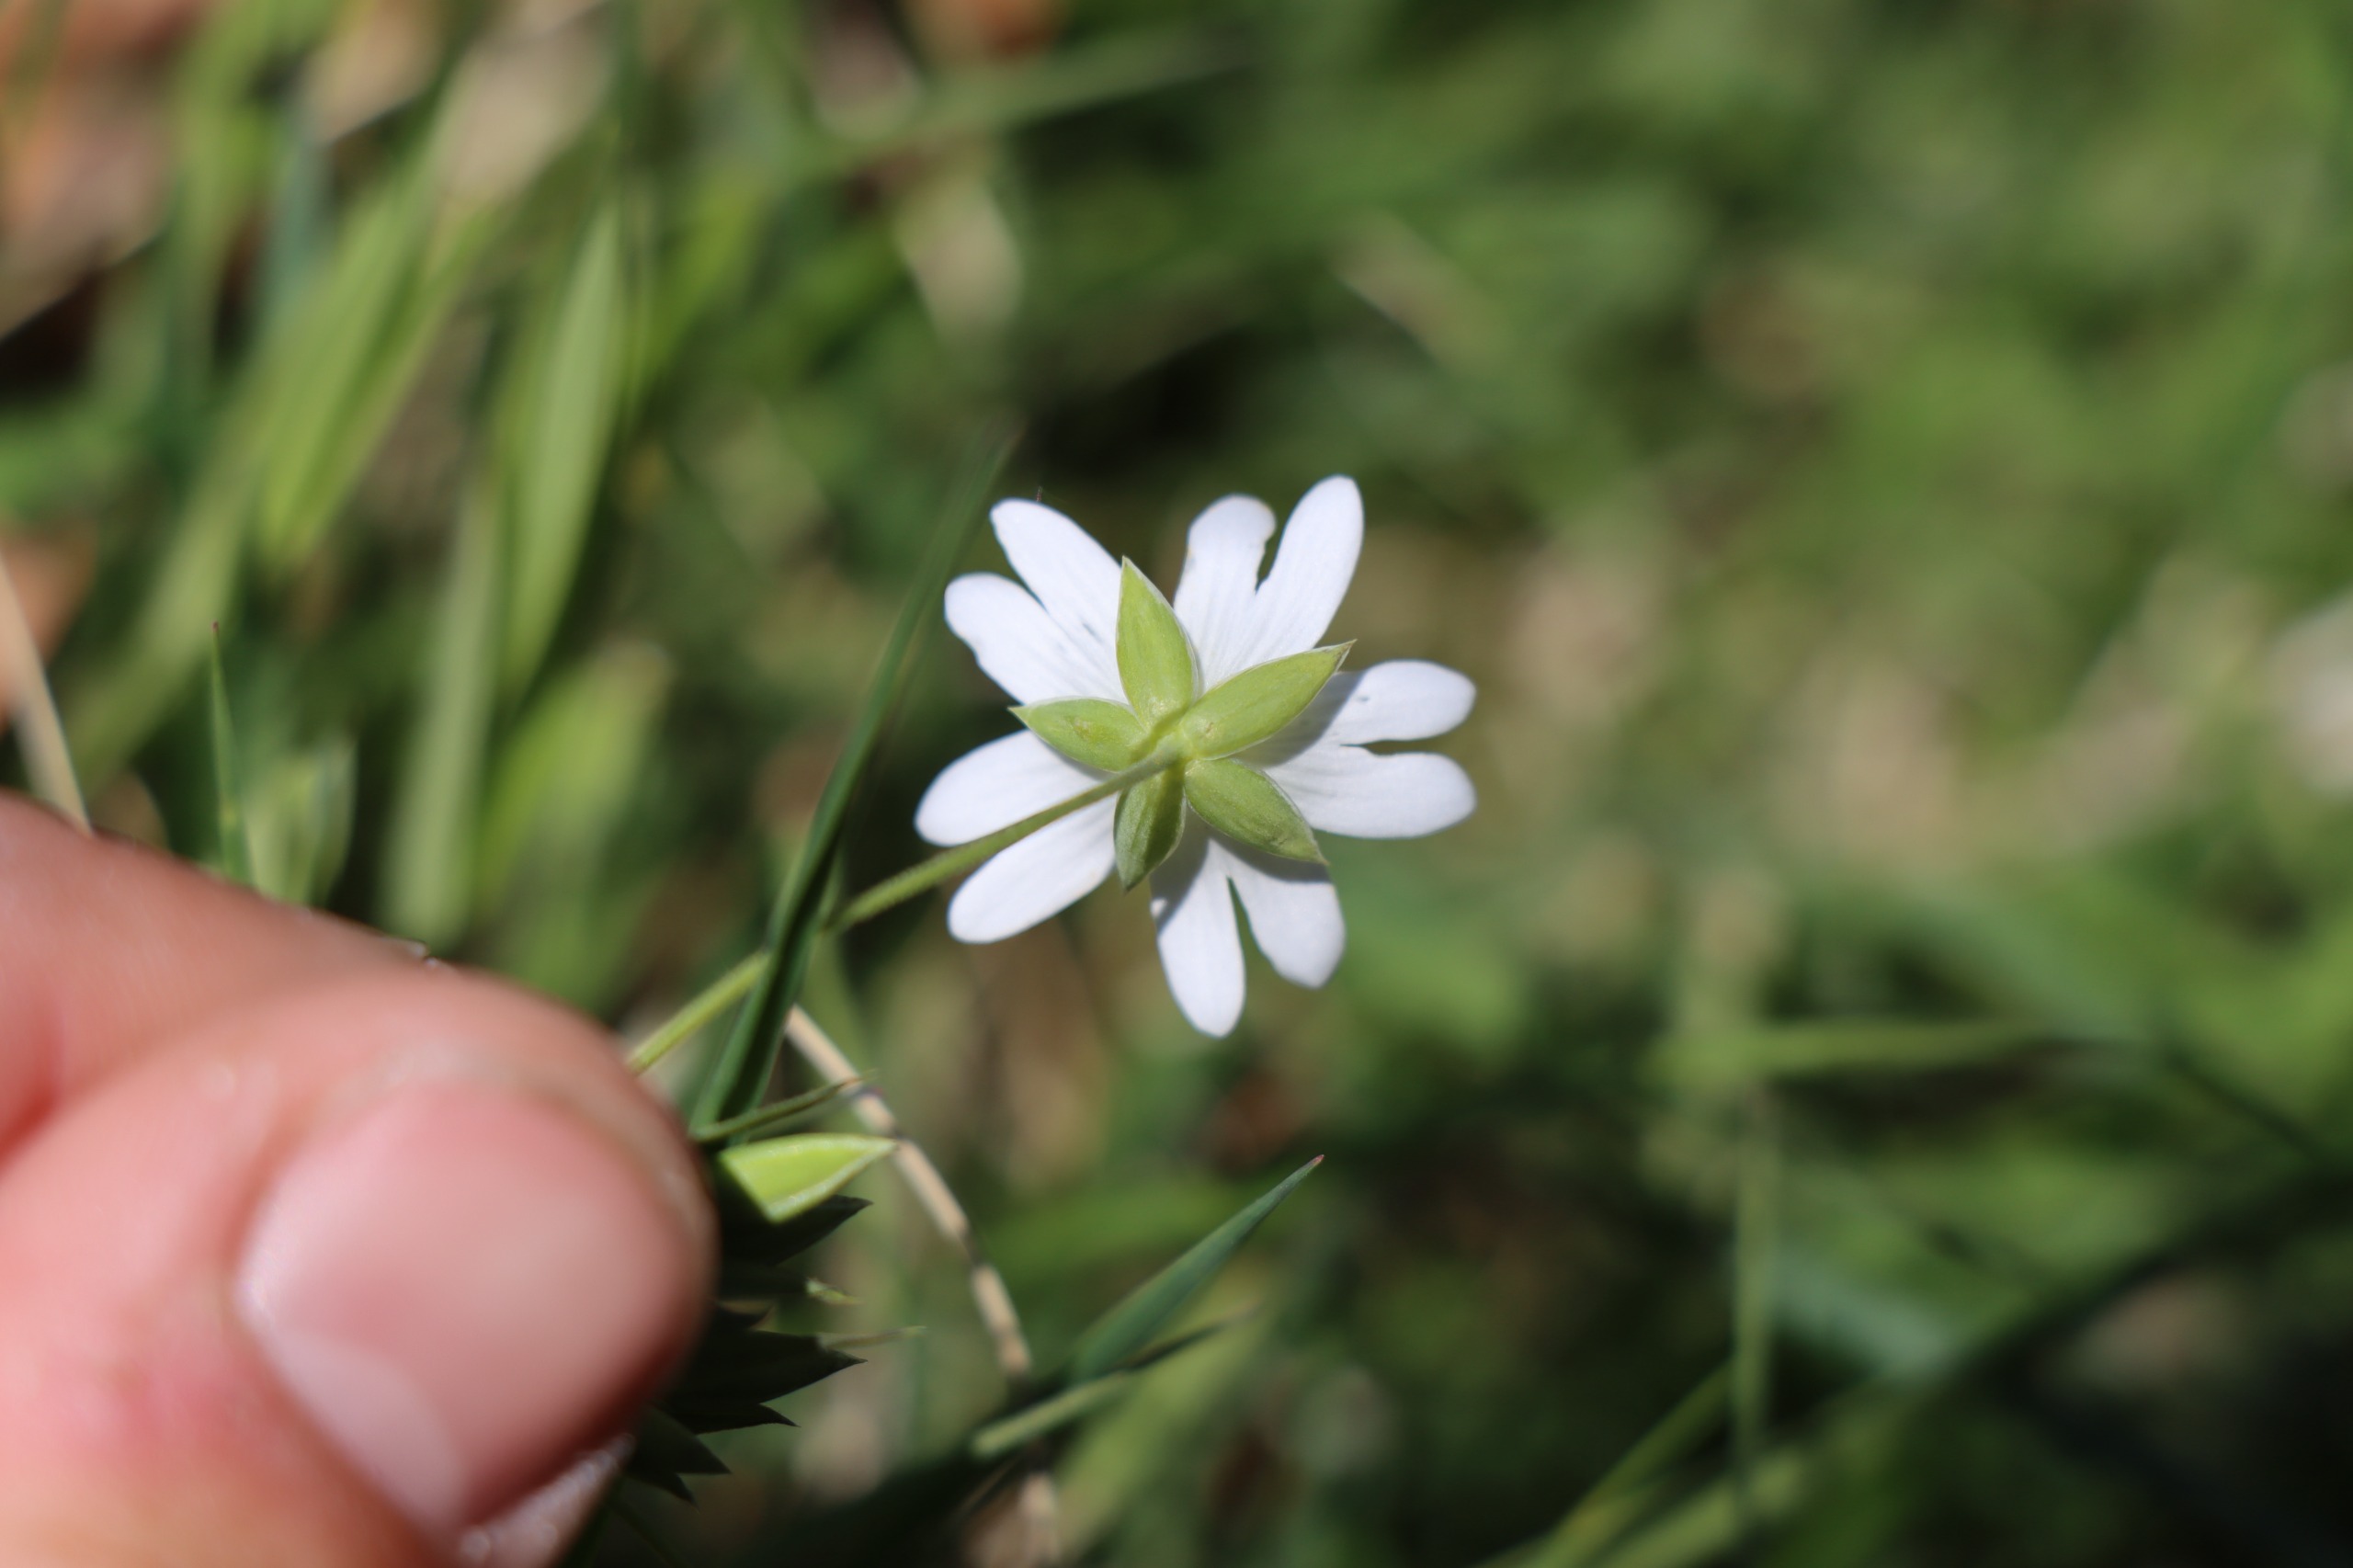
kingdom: Plantae
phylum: Tracheophyta
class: Magnoliopsida
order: Caryophyllales
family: Caryophyllaceae
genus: Rabelera
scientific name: Rabelera holostea
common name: Stor fladstjerne
